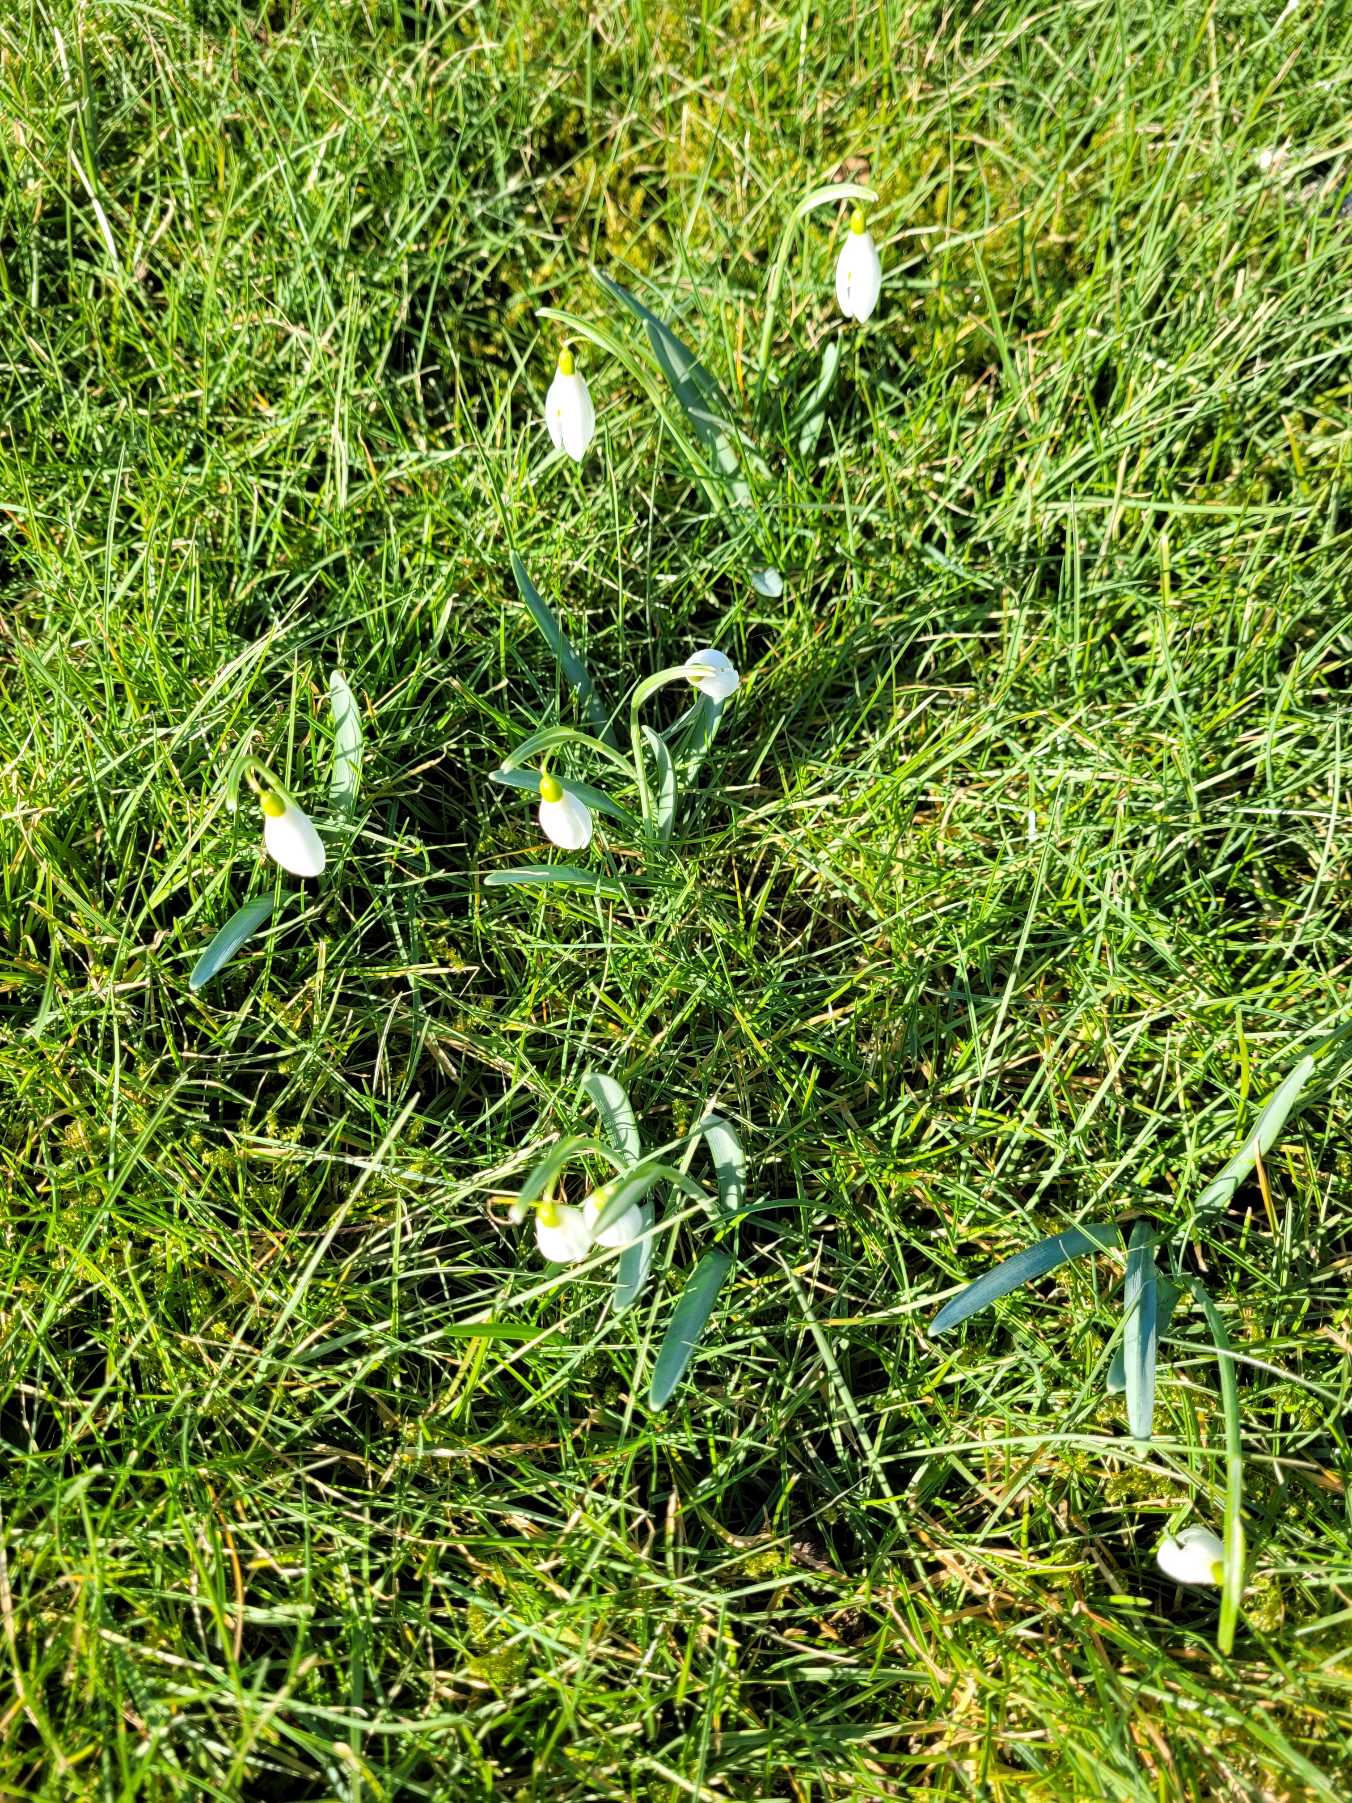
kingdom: Plantae
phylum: Tracheophyta
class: Liliopsida
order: Asparagales
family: Amaryllidaceae
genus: Galanthus
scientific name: Galanthus nivalis
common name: Vintergæk
